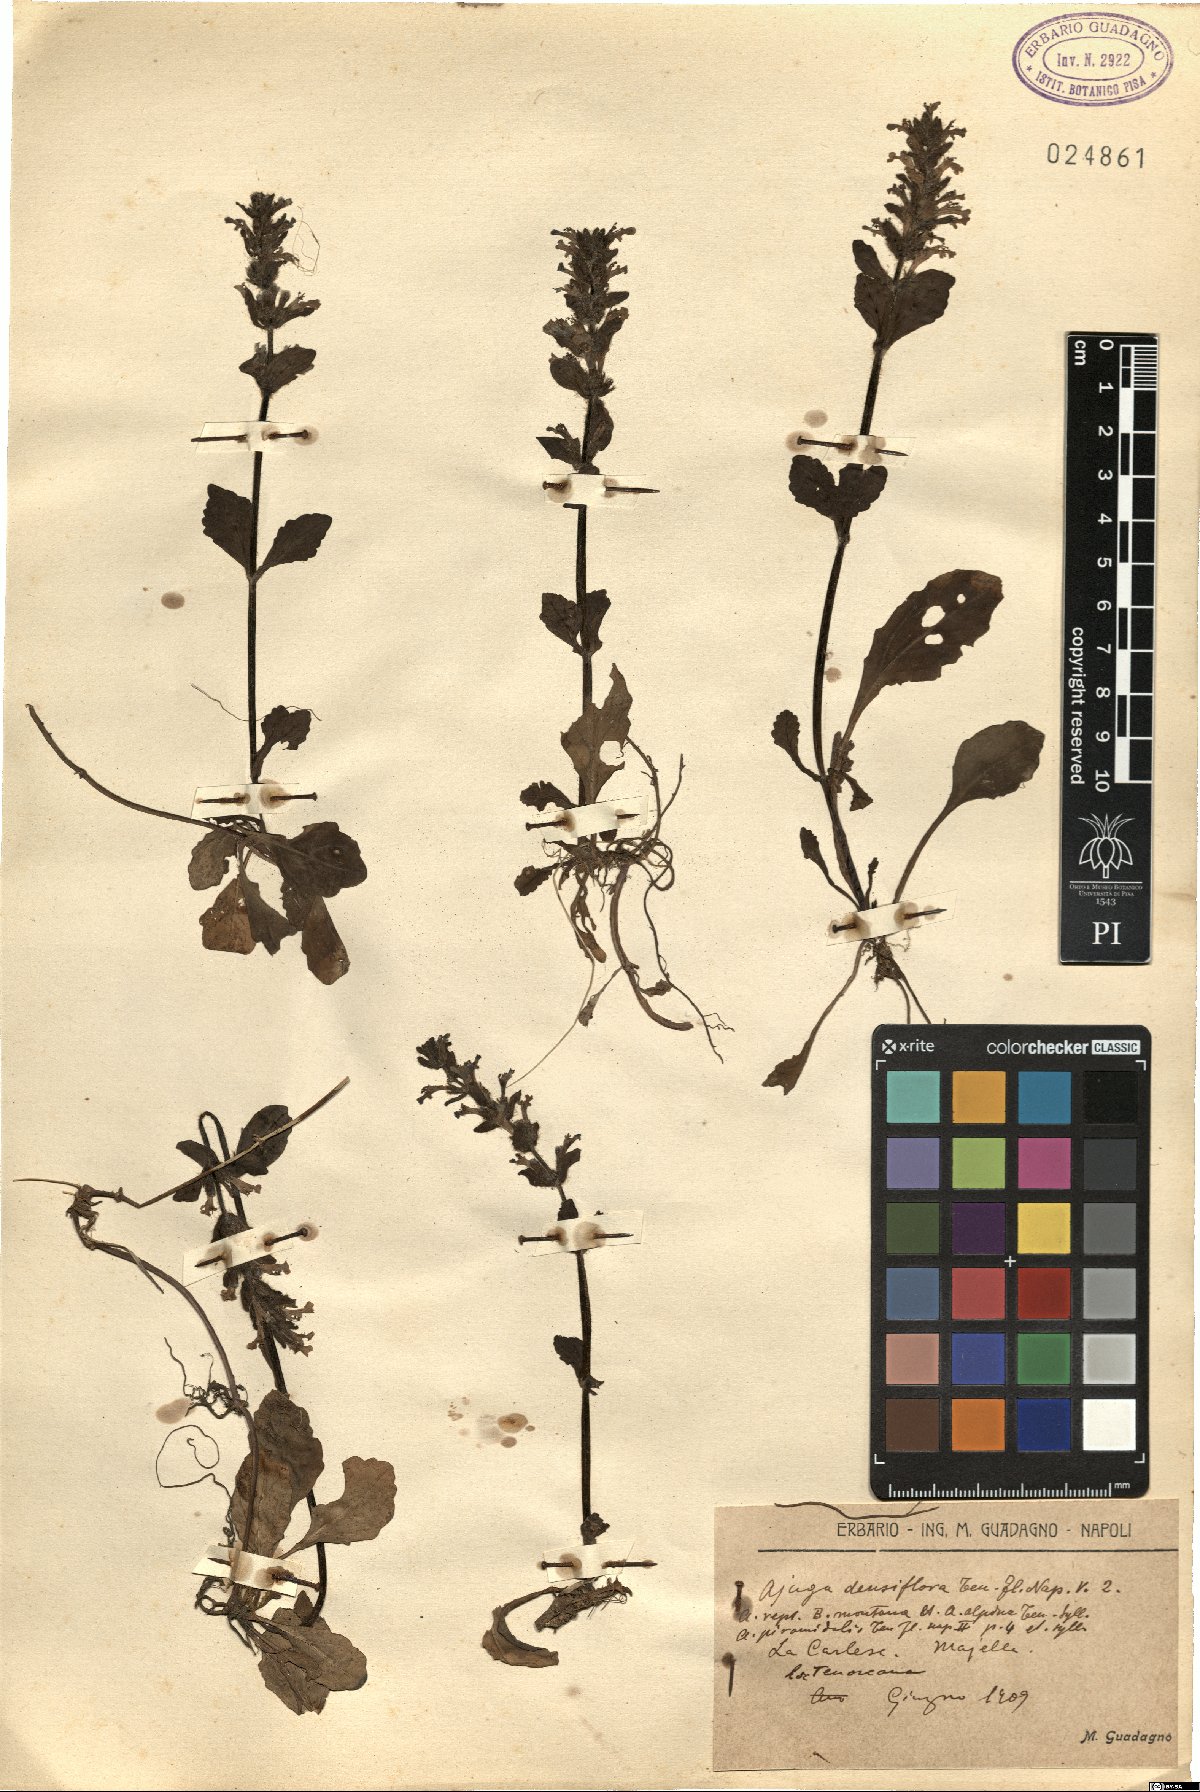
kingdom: Plantae
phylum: Tracheophyta
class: Magnoliopsida
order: Lamiales
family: Lamiaceae
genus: Ajuga
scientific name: Ajuga reptans
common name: Bugle
